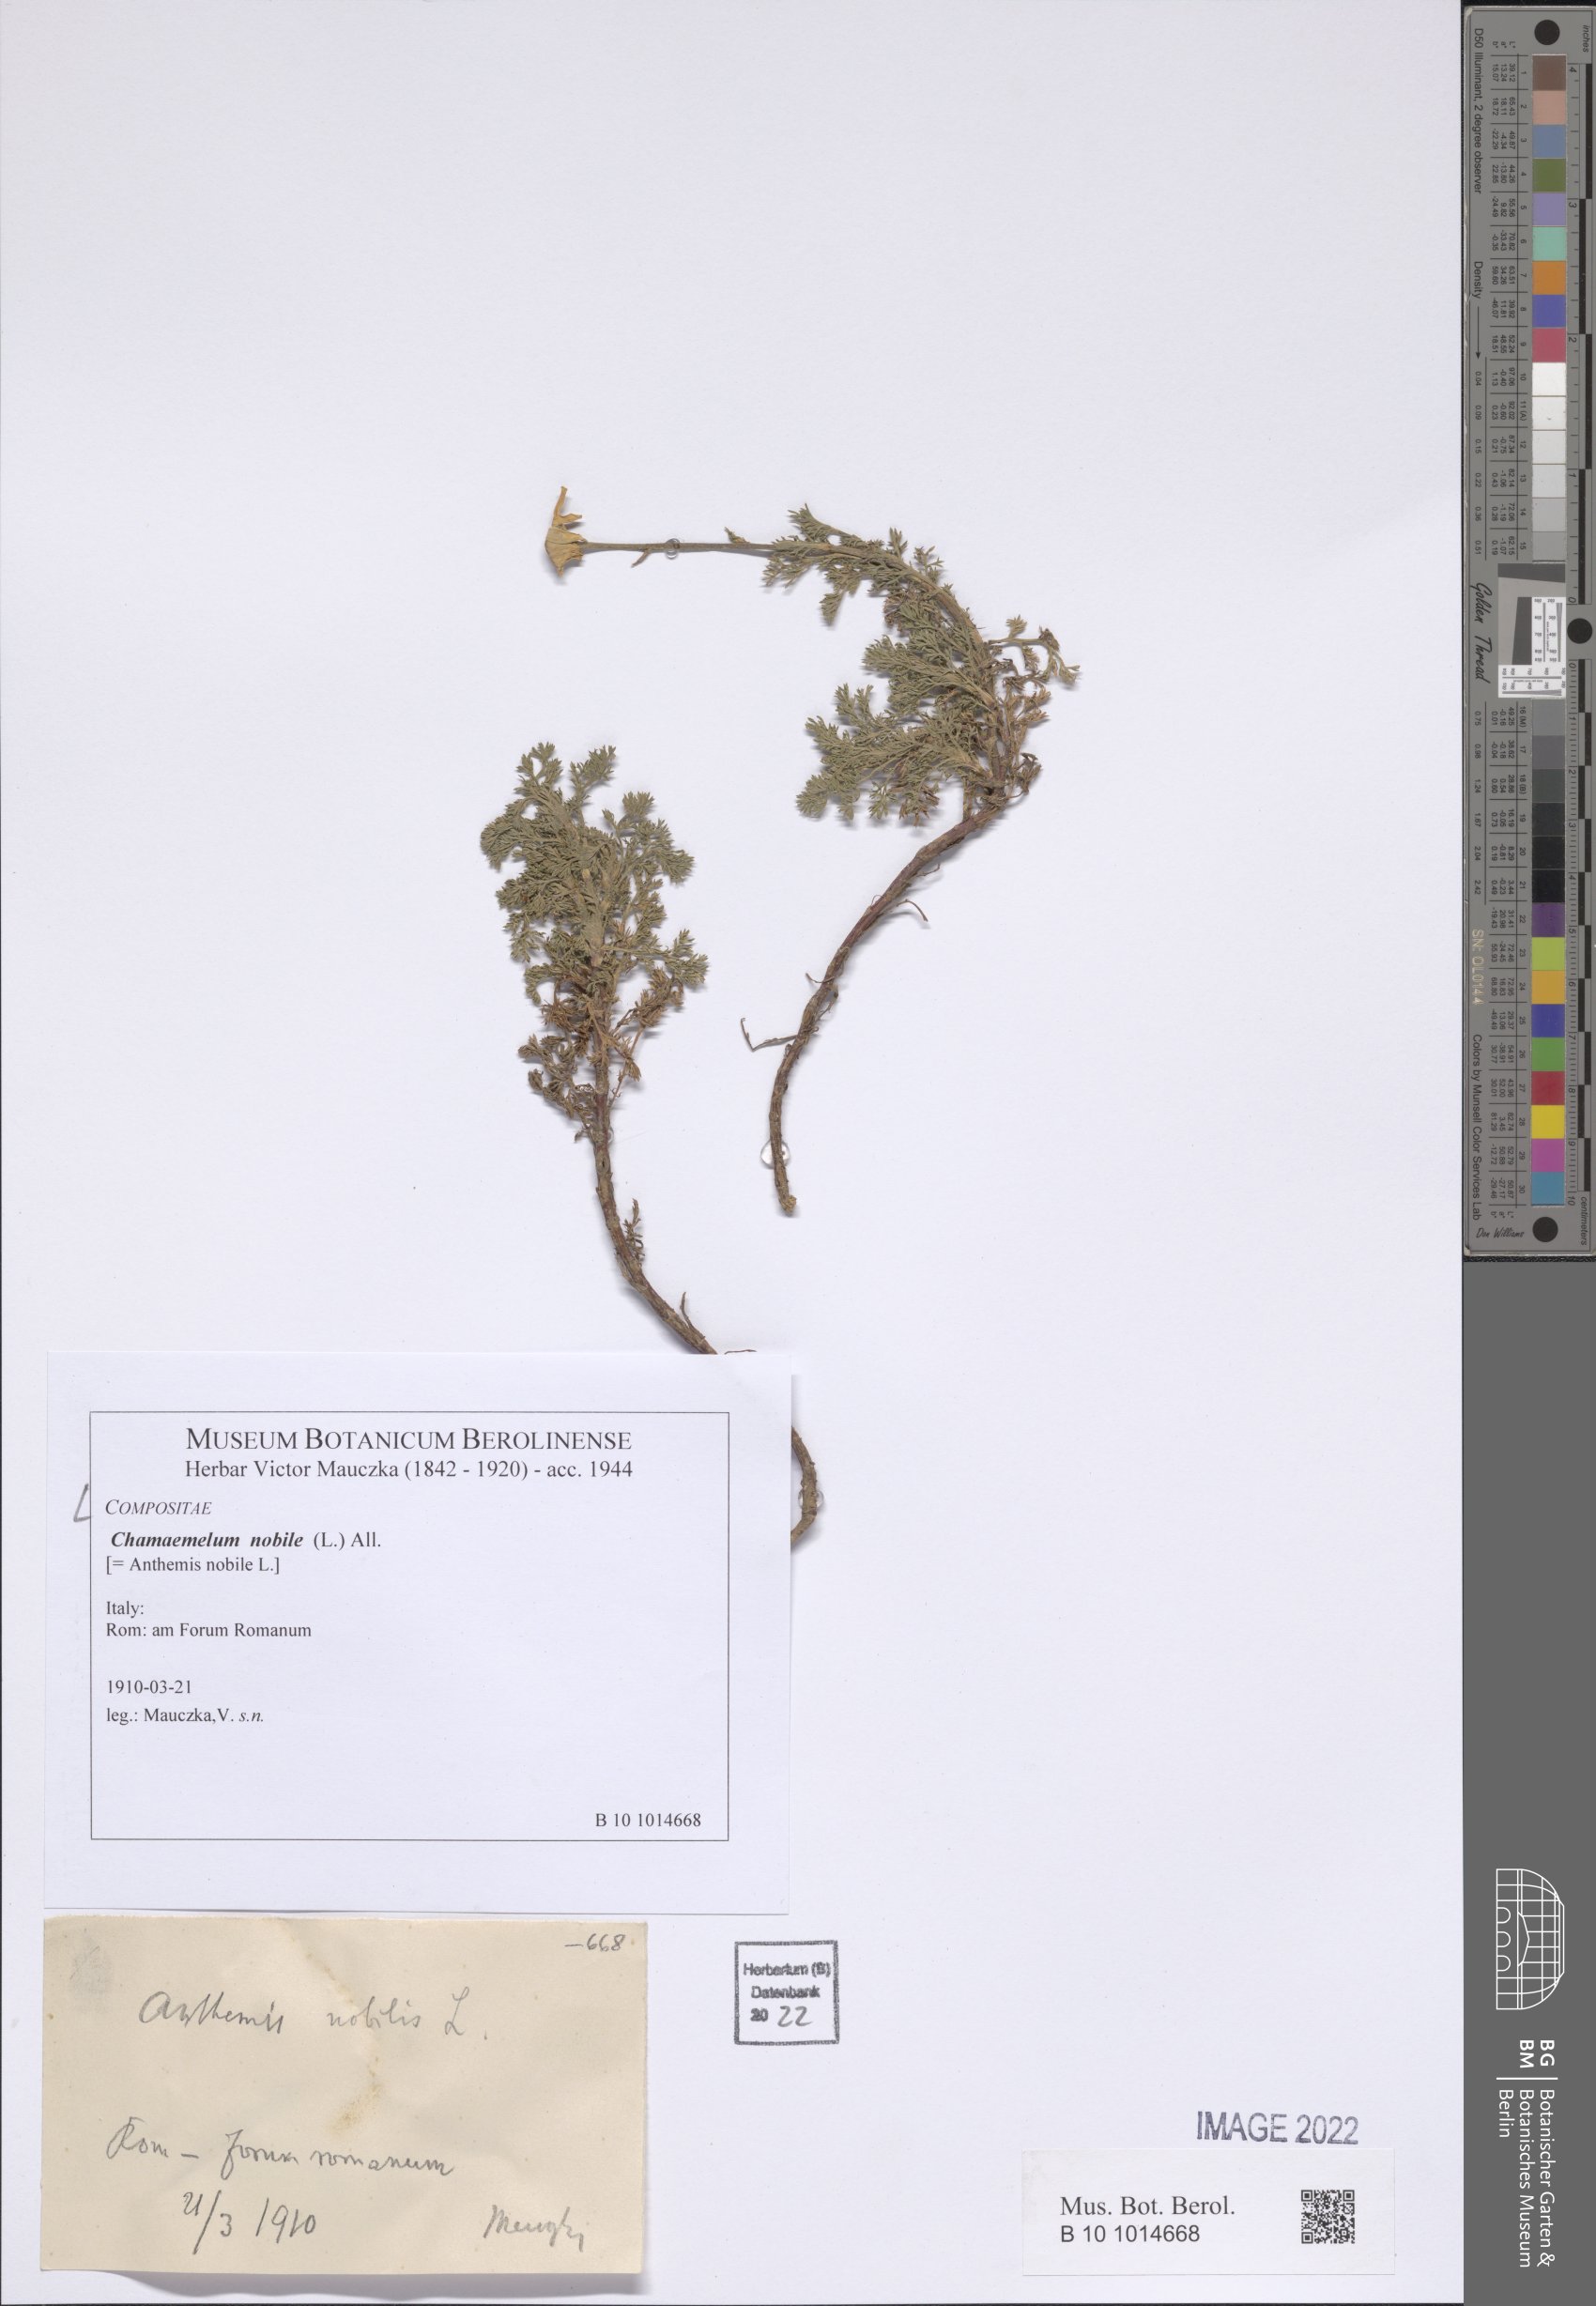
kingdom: Plantae
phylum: Tracheophyta
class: Magnoliopsida
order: Asterales
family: Asteraceae
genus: Chamaemelum
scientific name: Chamaemelum nobile
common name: Roman chamomile
